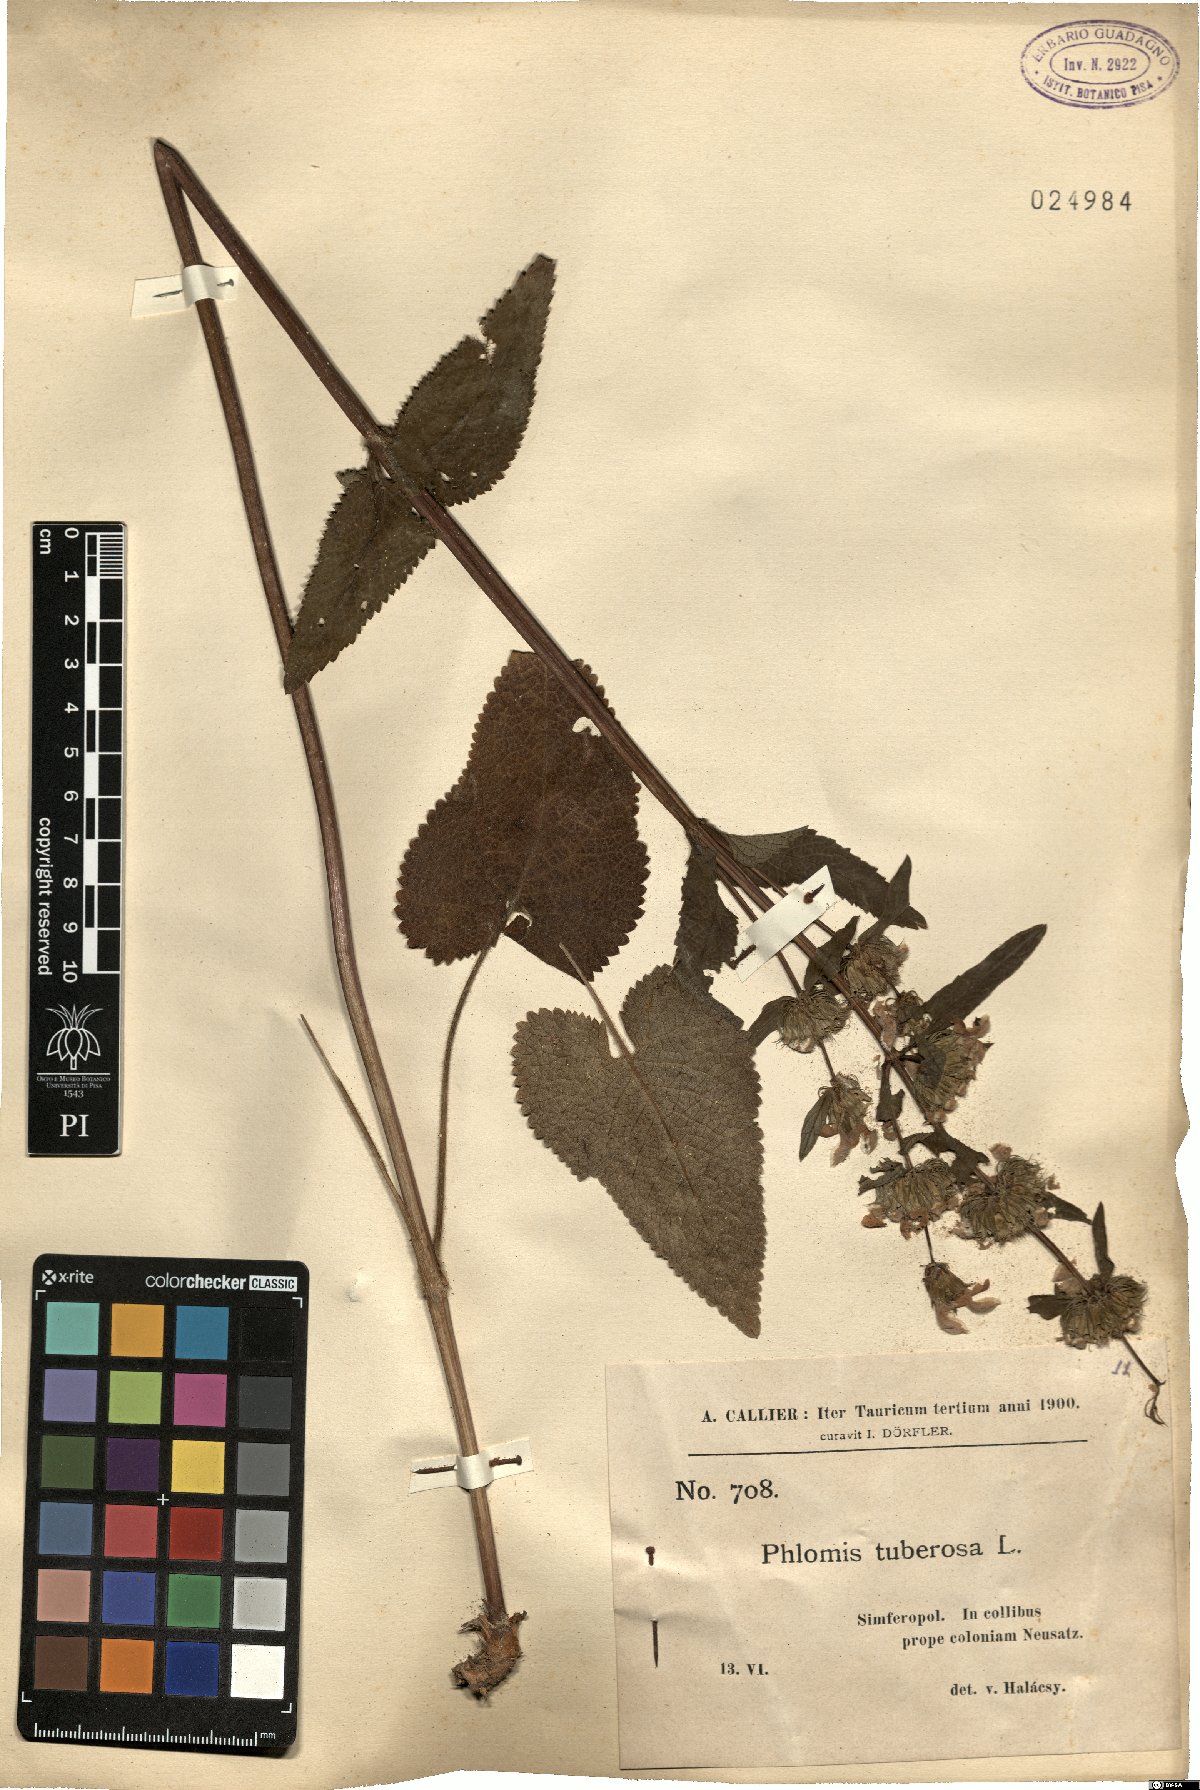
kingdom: Plantae
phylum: Tracheophyta
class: Magnoliopsida
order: Lamiales
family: Lamiaceae
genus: Phlomoides
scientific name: Phlomoides tuberosa
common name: Tuberous jerusalem sage
